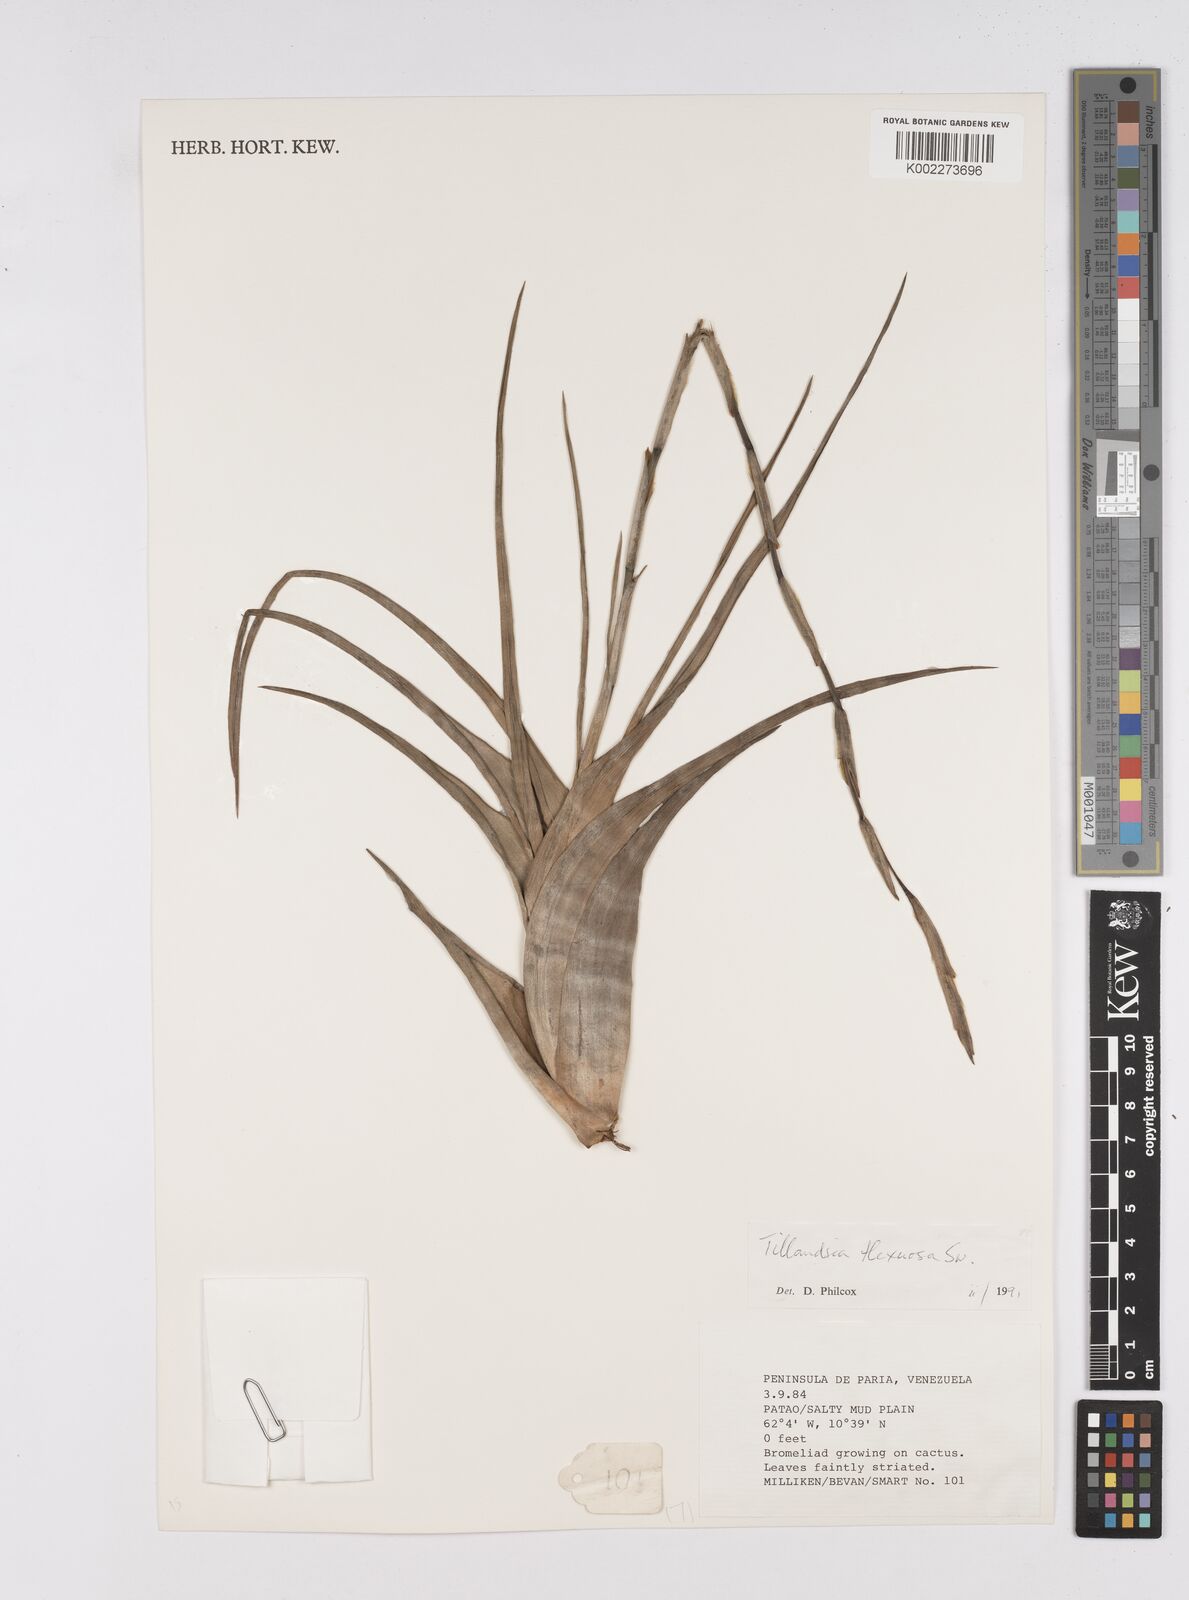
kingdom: Plantae
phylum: Tracheophyta
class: Liliopsida
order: Poales
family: Bromeliaceae
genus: Tillandsia
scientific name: Tillandsia flexuosa
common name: Banded airplant
